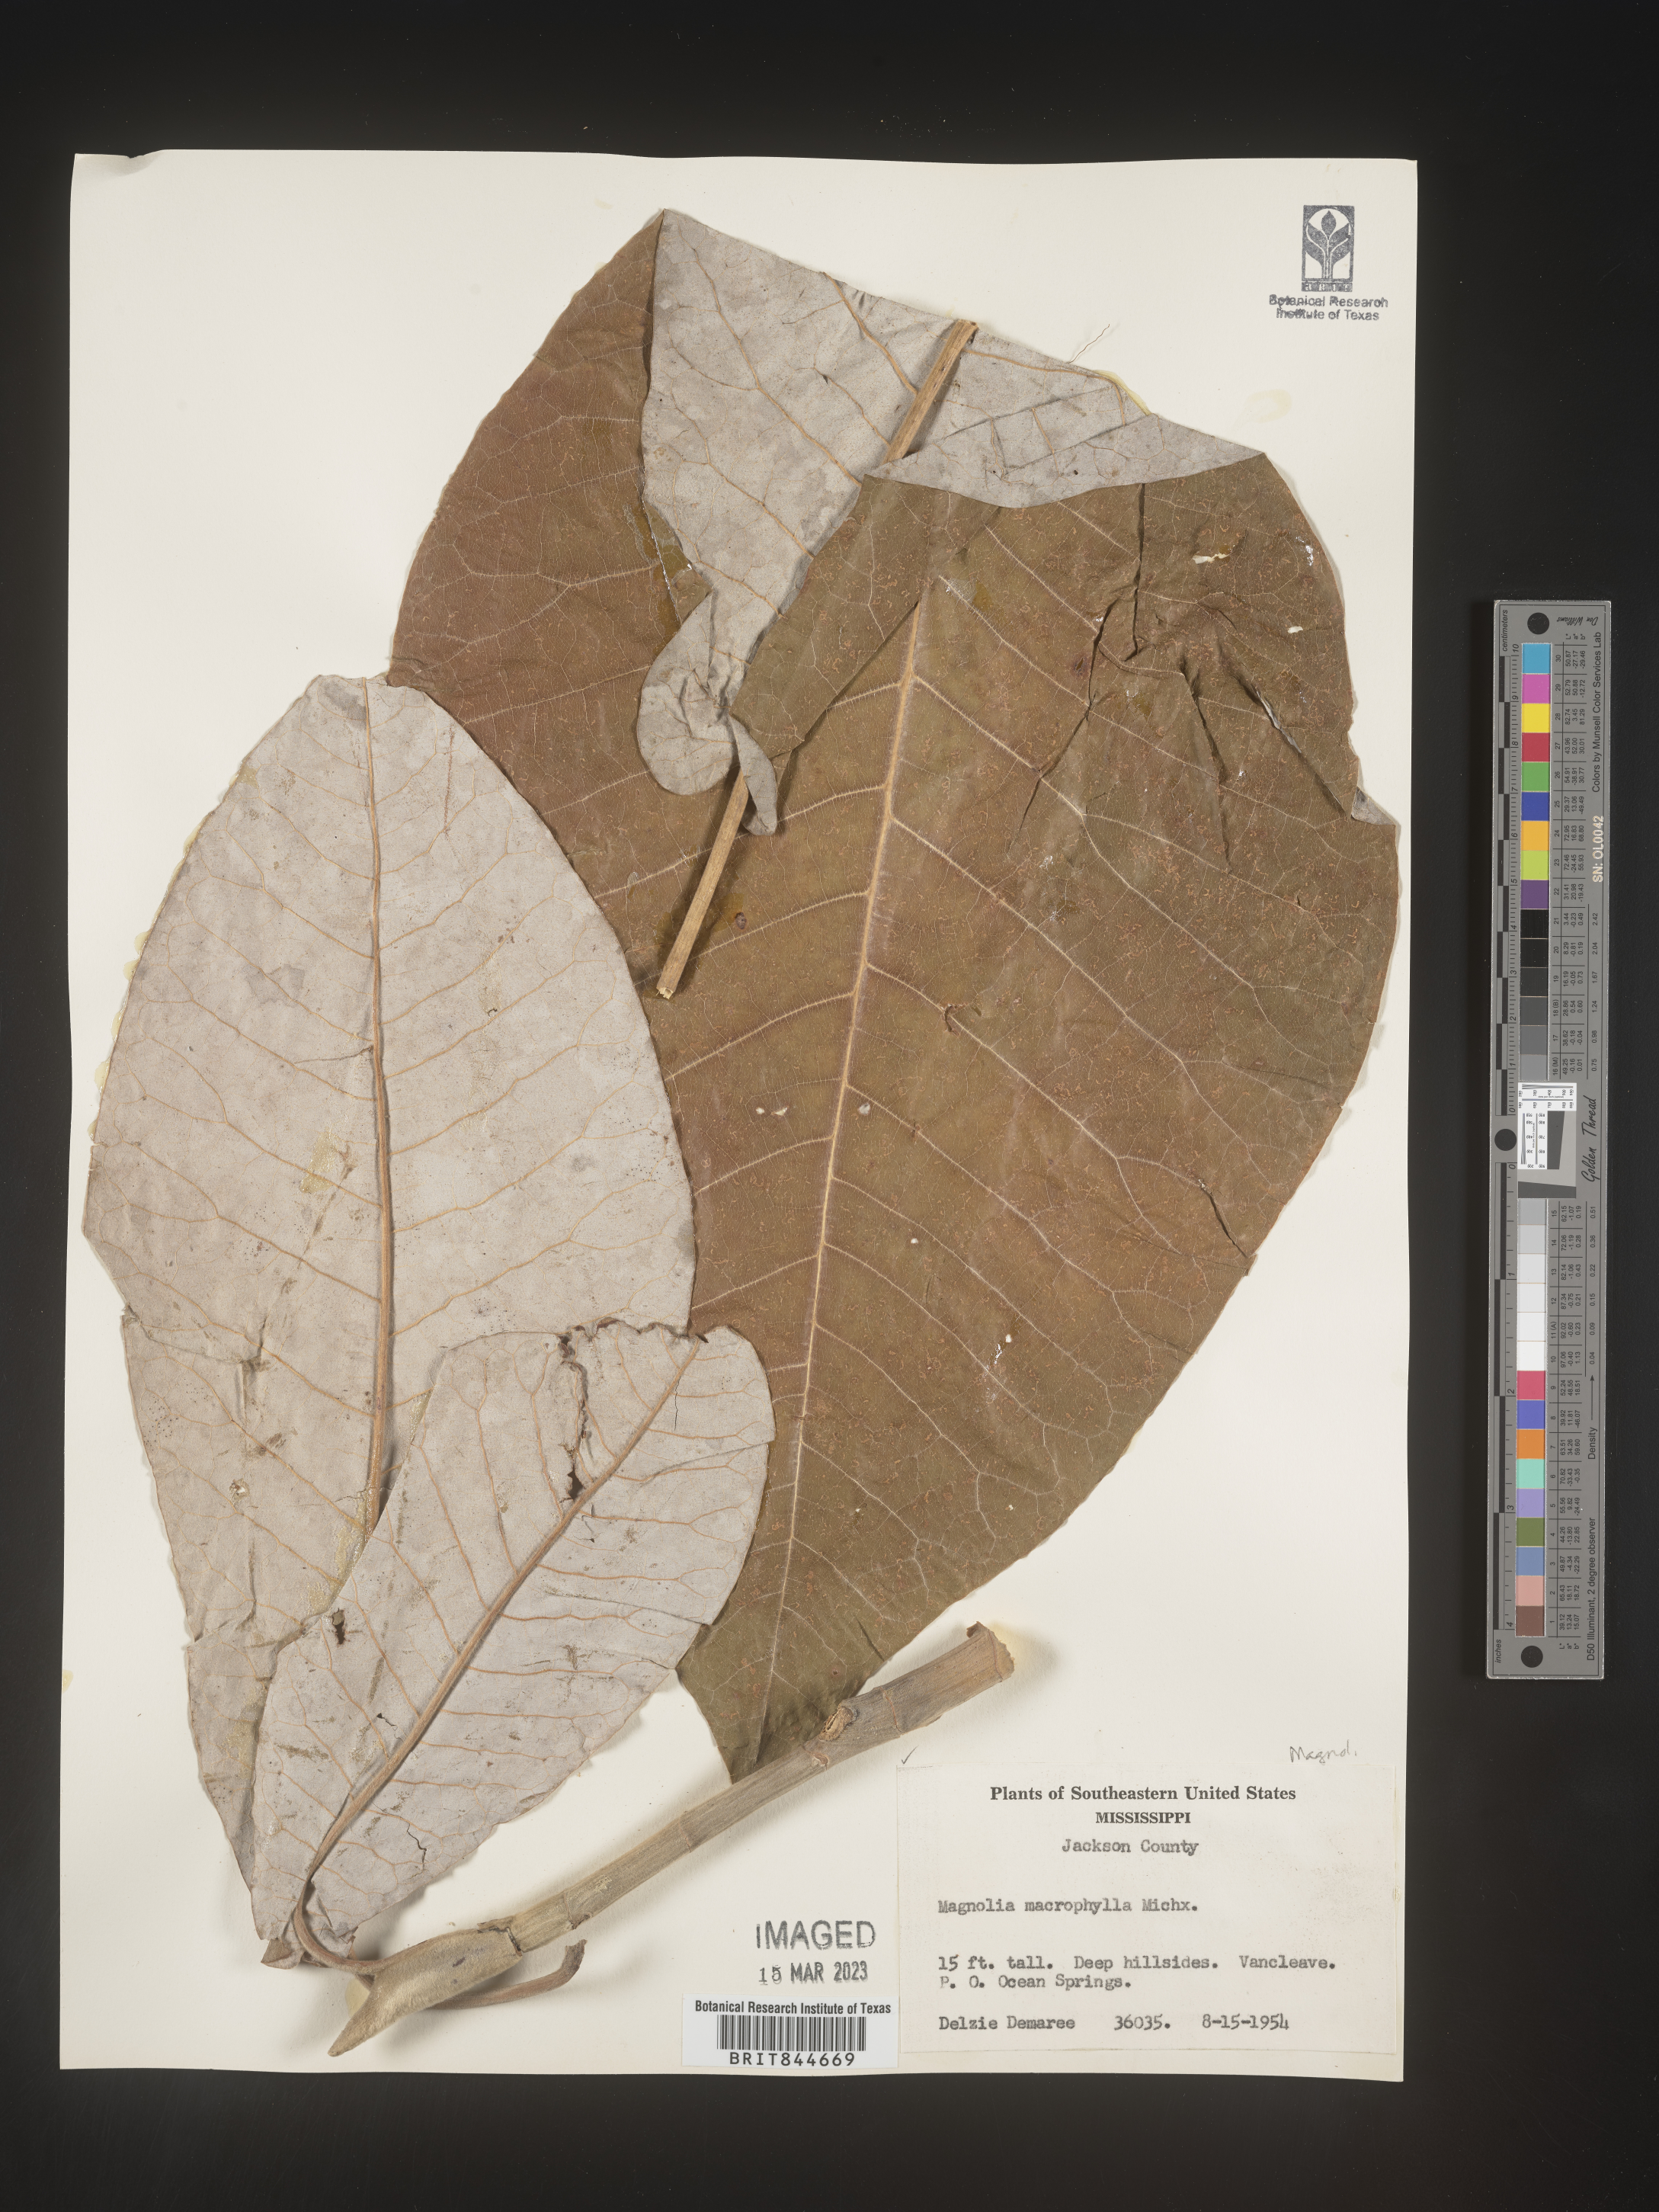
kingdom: Plantae
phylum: Tracheophyta
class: Magnoliopsida
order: Magnoliales
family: Magnoliaceae
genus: Magnolia
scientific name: Magnolia macrophylla
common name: Big-leaf magnolia
